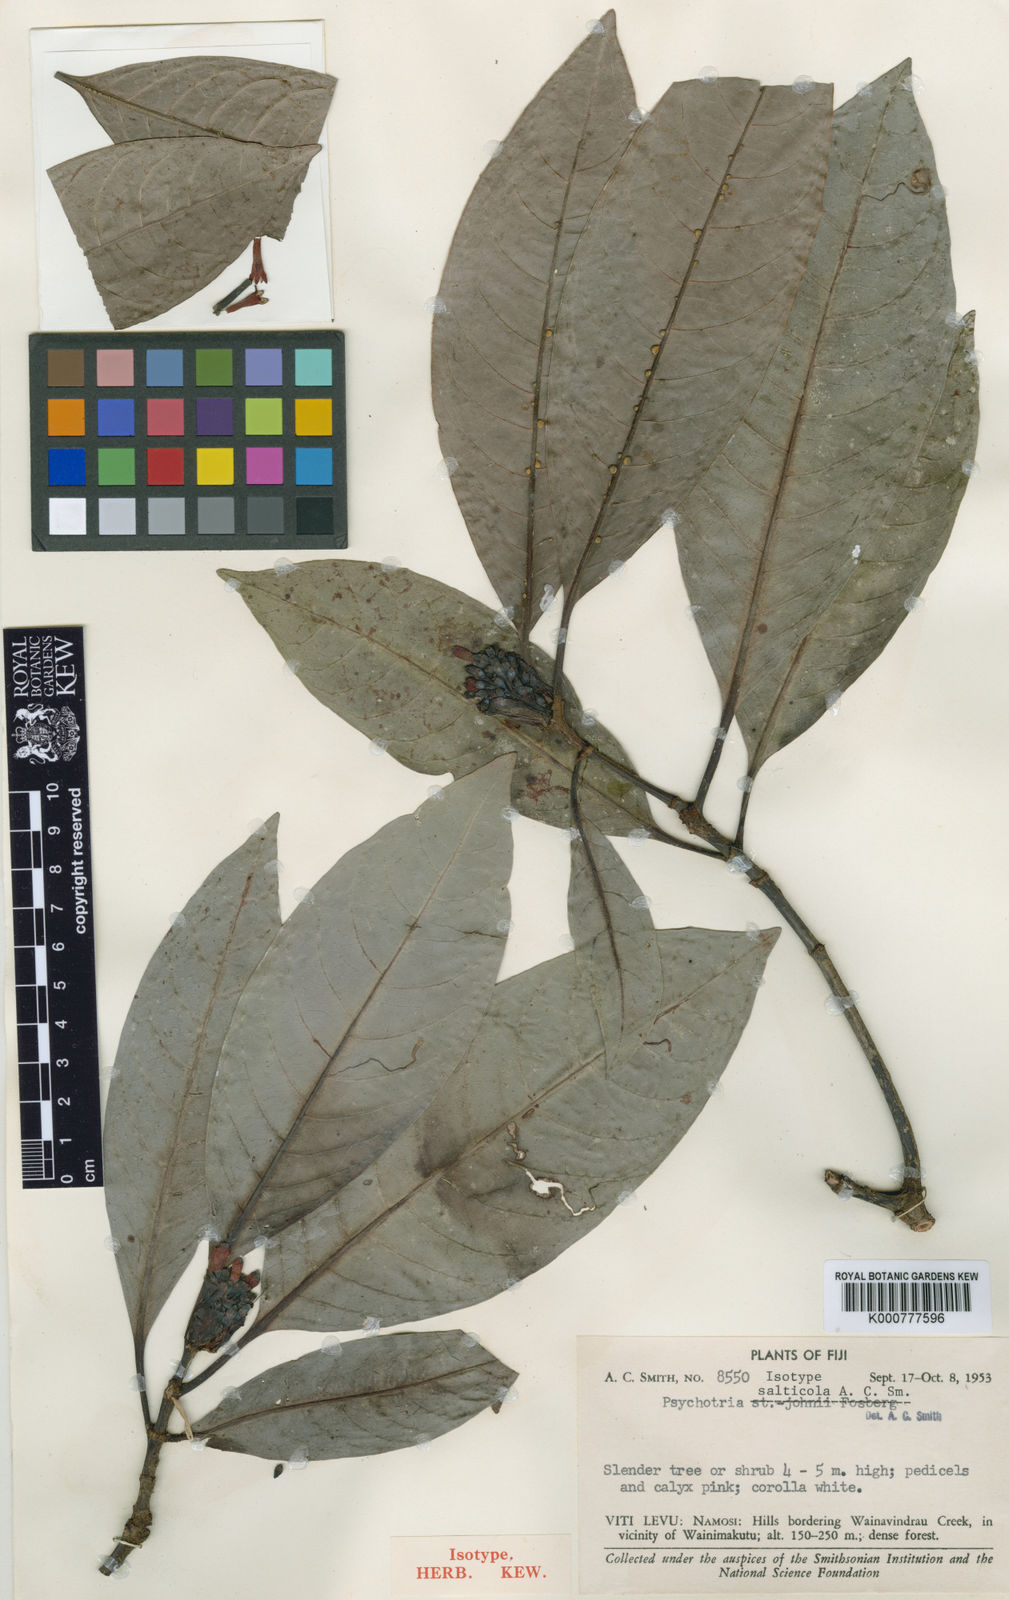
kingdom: Plantae
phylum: Tracheophyta
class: Magnoliopsida
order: Gentianales
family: Rubiaceae
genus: Psychotria
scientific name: Psychotria brackenridgei
